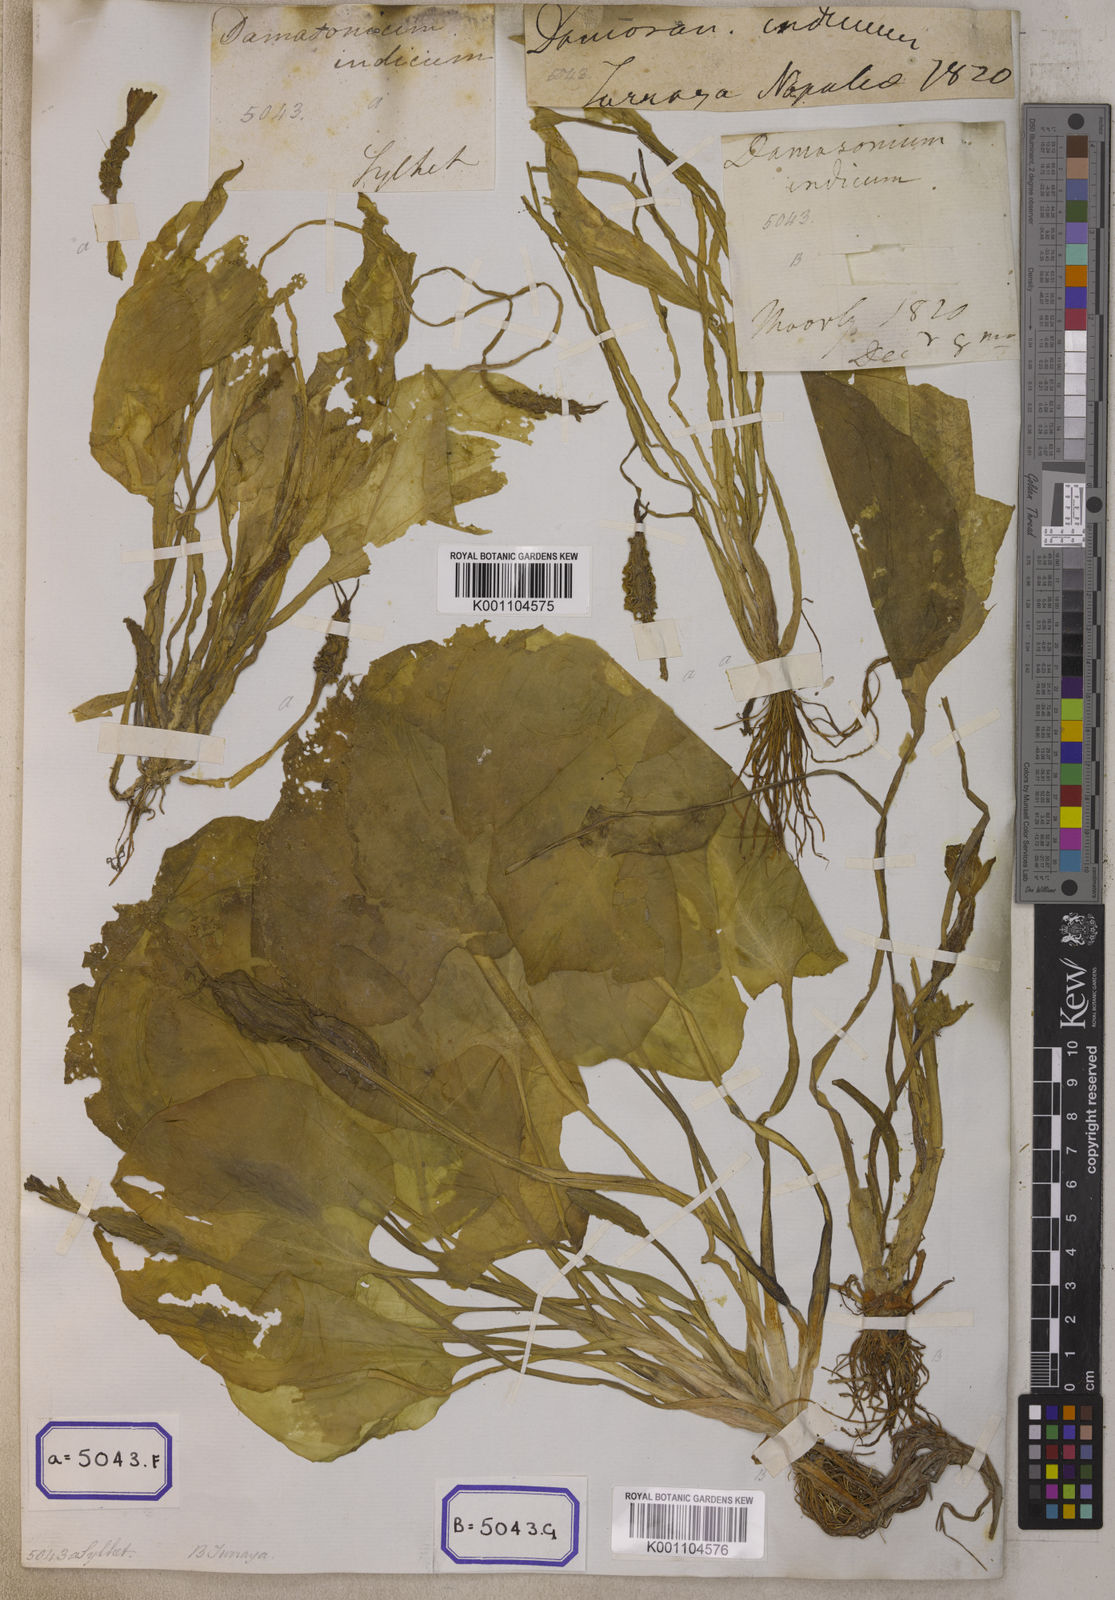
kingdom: Plantae
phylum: Tracheophyta
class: Liliopsida
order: Alismatales
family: Hydrocharitaceae
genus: Ottelia
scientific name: Ottelia alismoides
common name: Duck-lettuce
